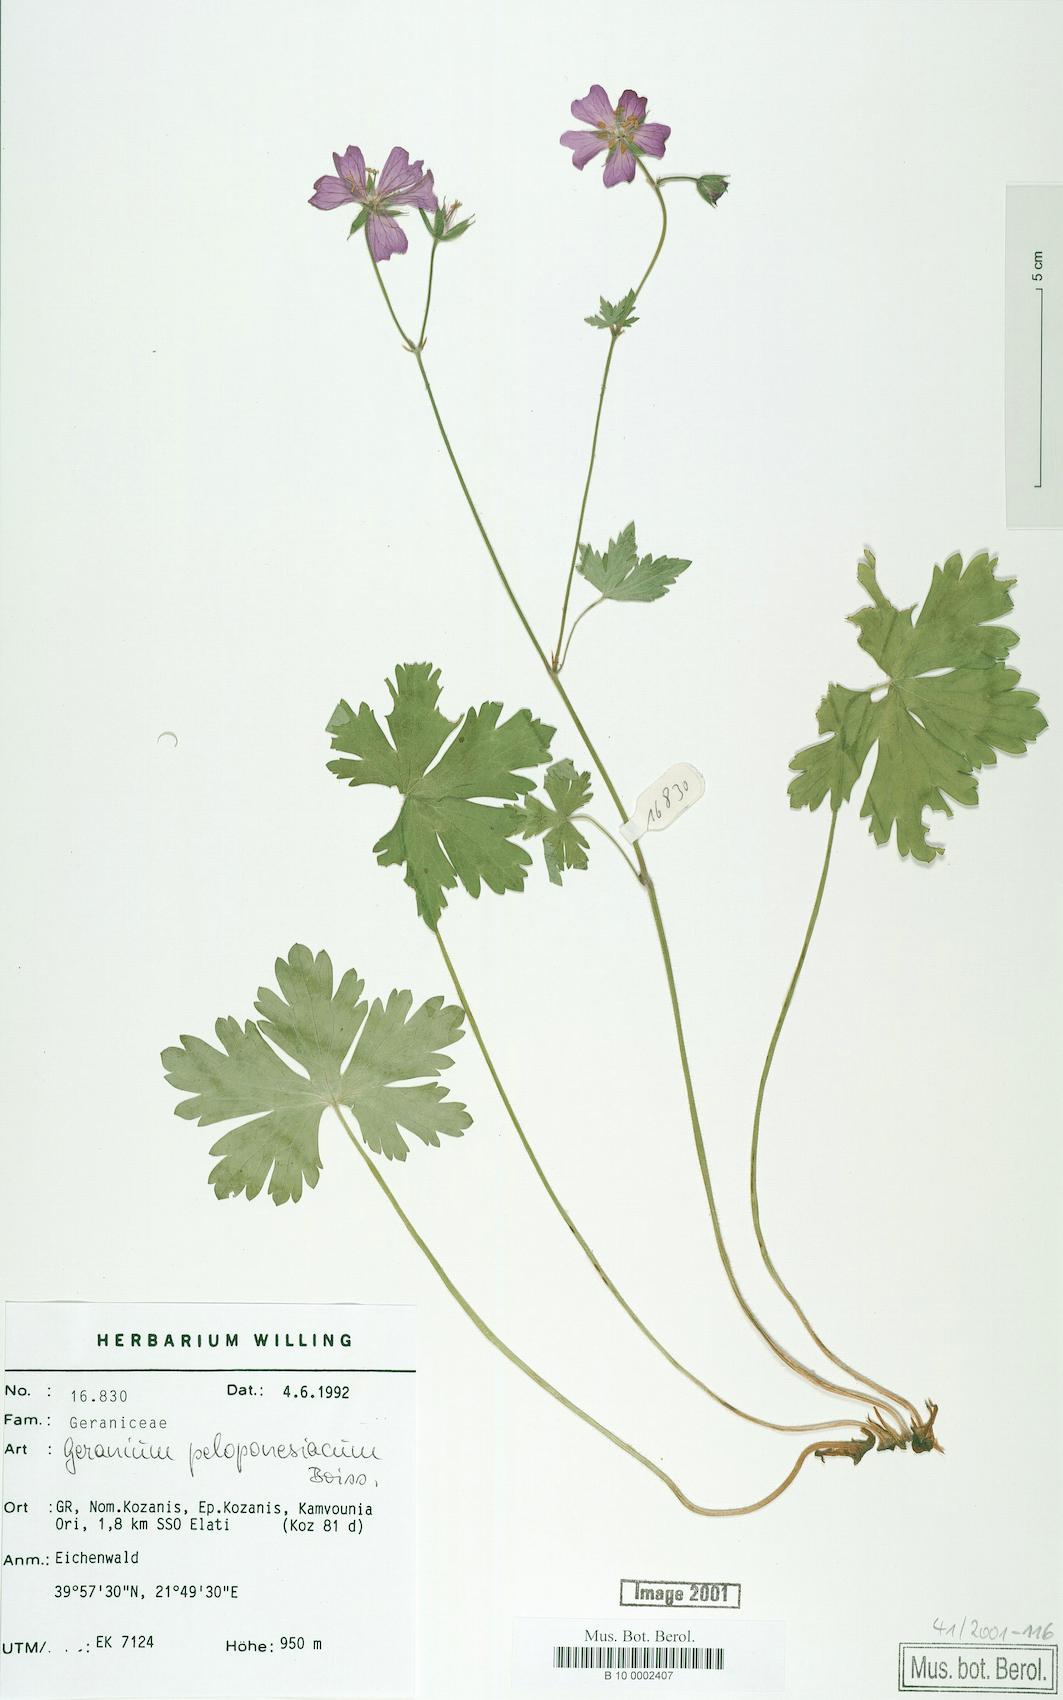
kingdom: Plantae
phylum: Tracheophyta
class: Magnoliopsida
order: Geraniales
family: Geraniaceae
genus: Geranium
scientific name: Geranium peloponnesiacum
